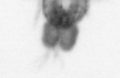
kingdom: Animalia
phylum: Arthropoda
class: Copepoda
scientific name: Copepoda
